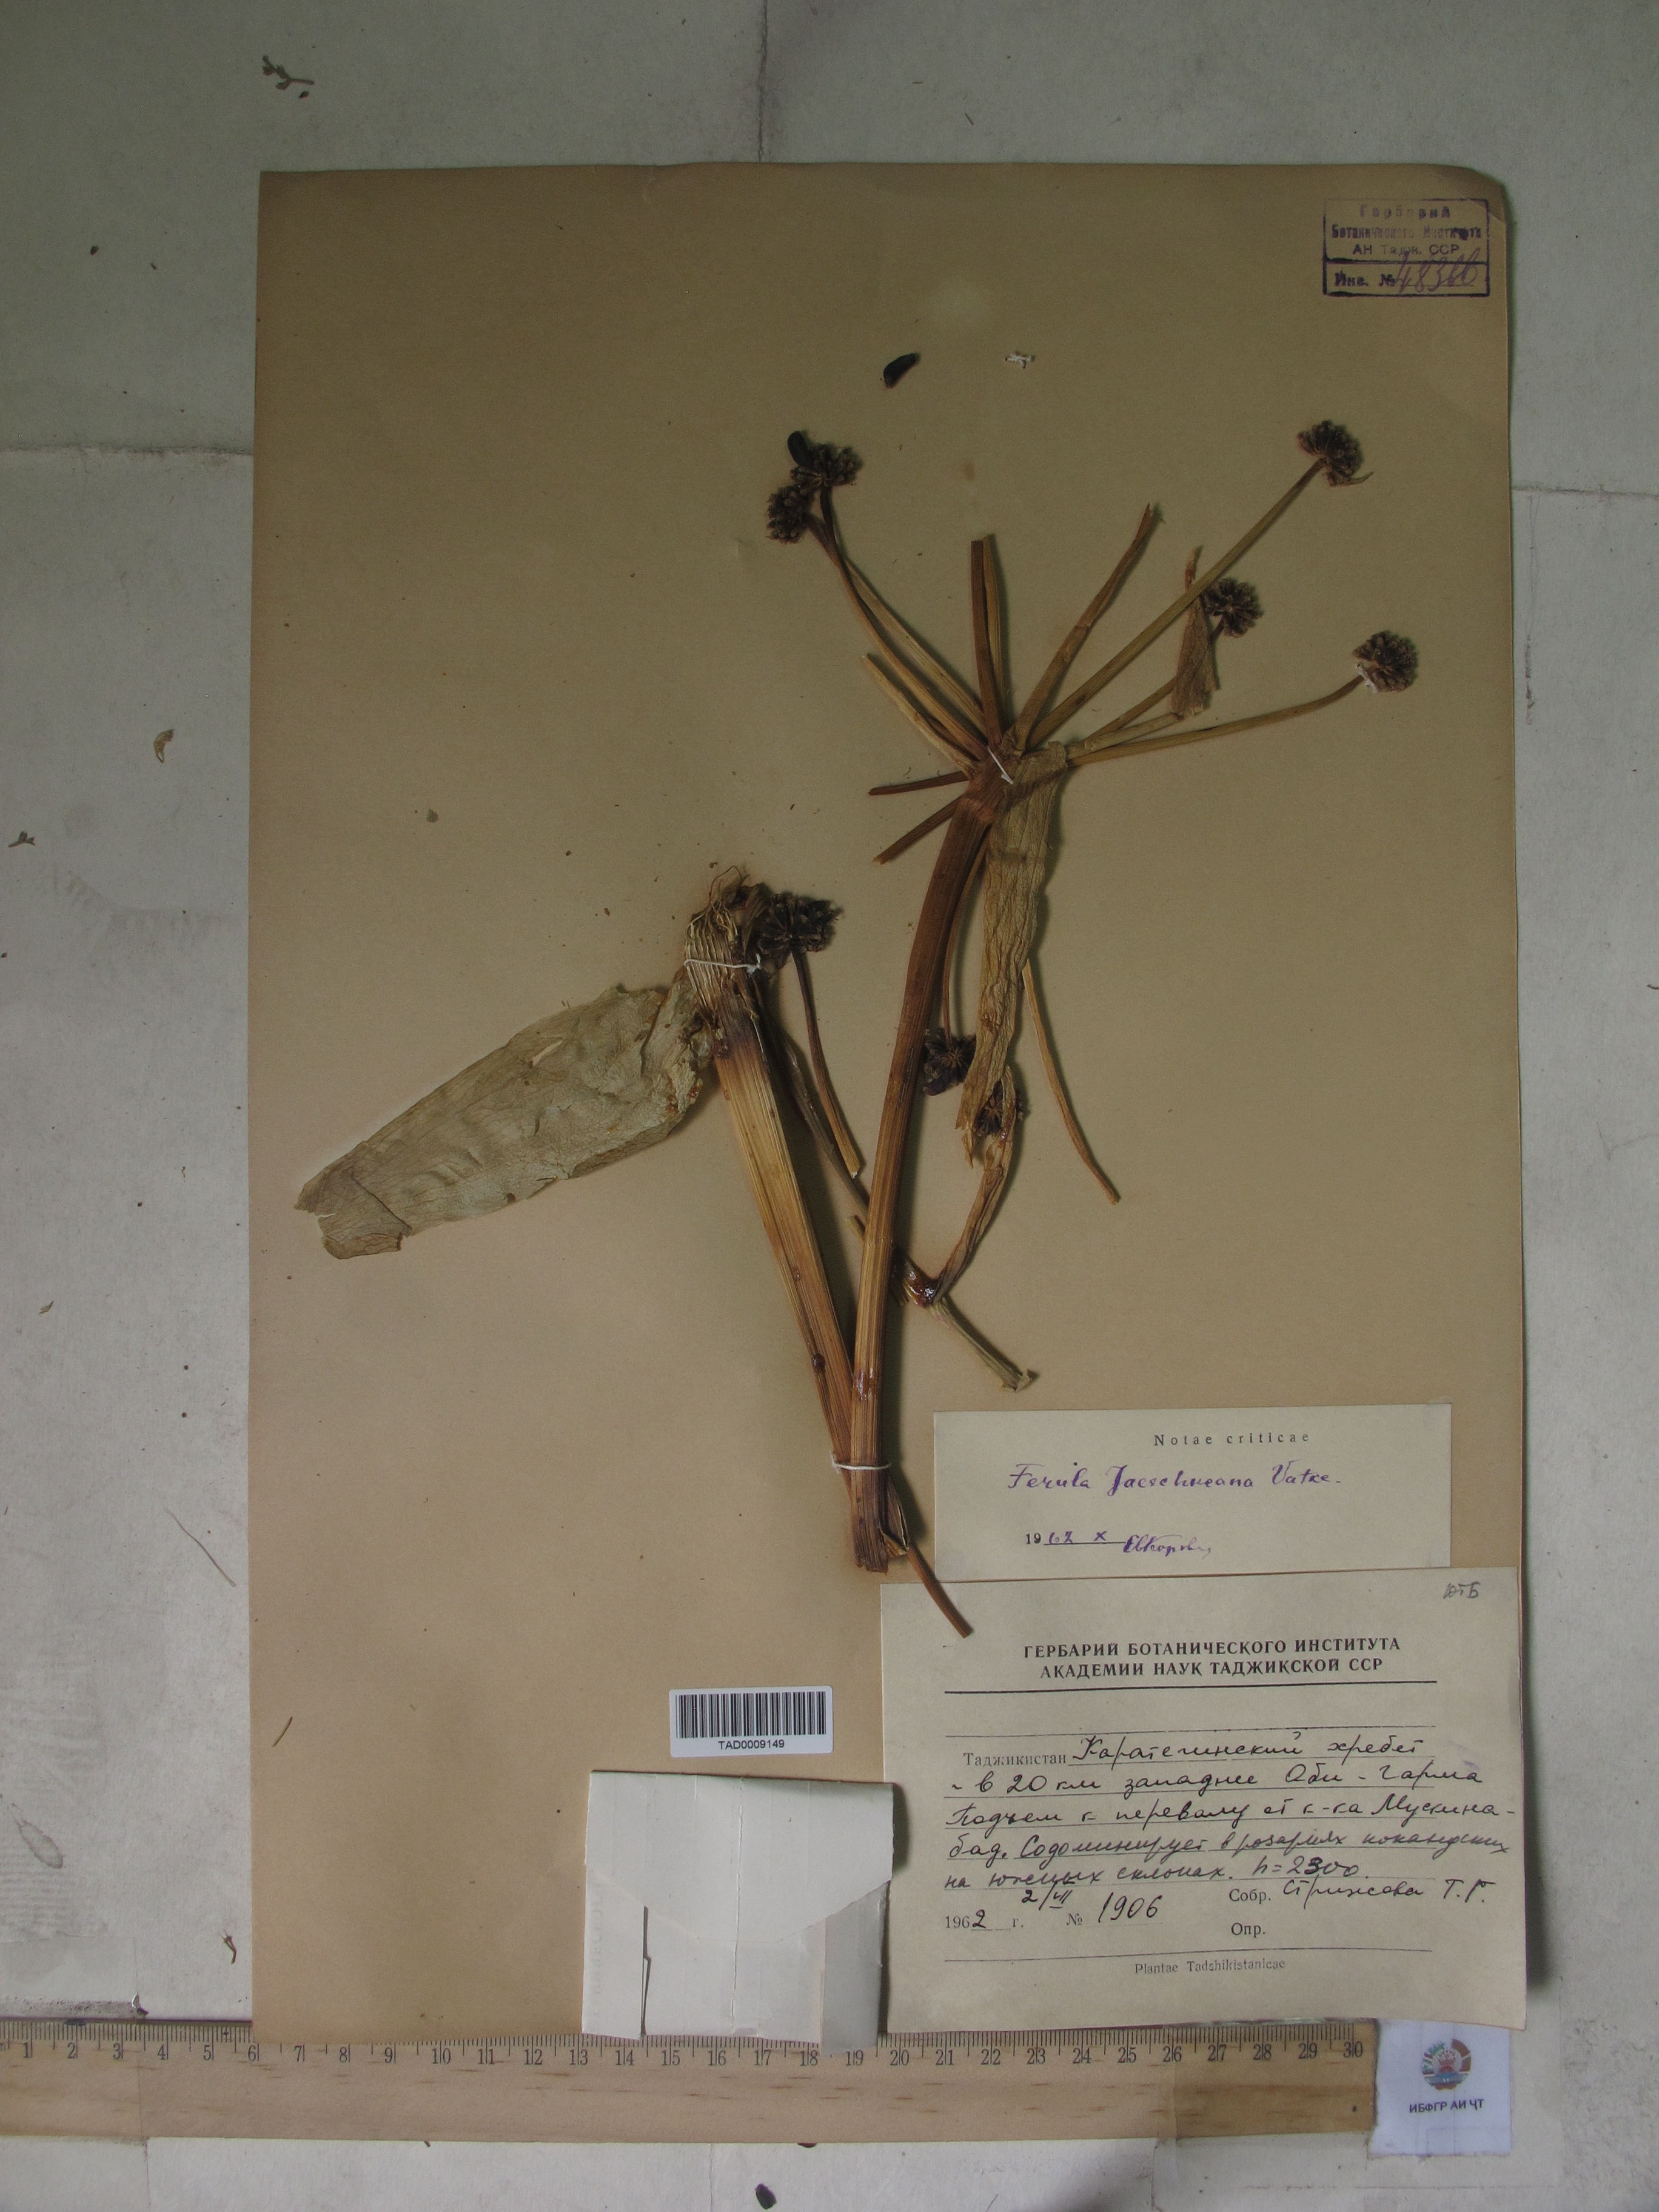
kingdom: Plantae
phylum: Tracheophyta
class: Magnoliopsida
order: Apiales
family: Apiaceae
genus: Ferula
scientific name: Ferula jaeschkeana
